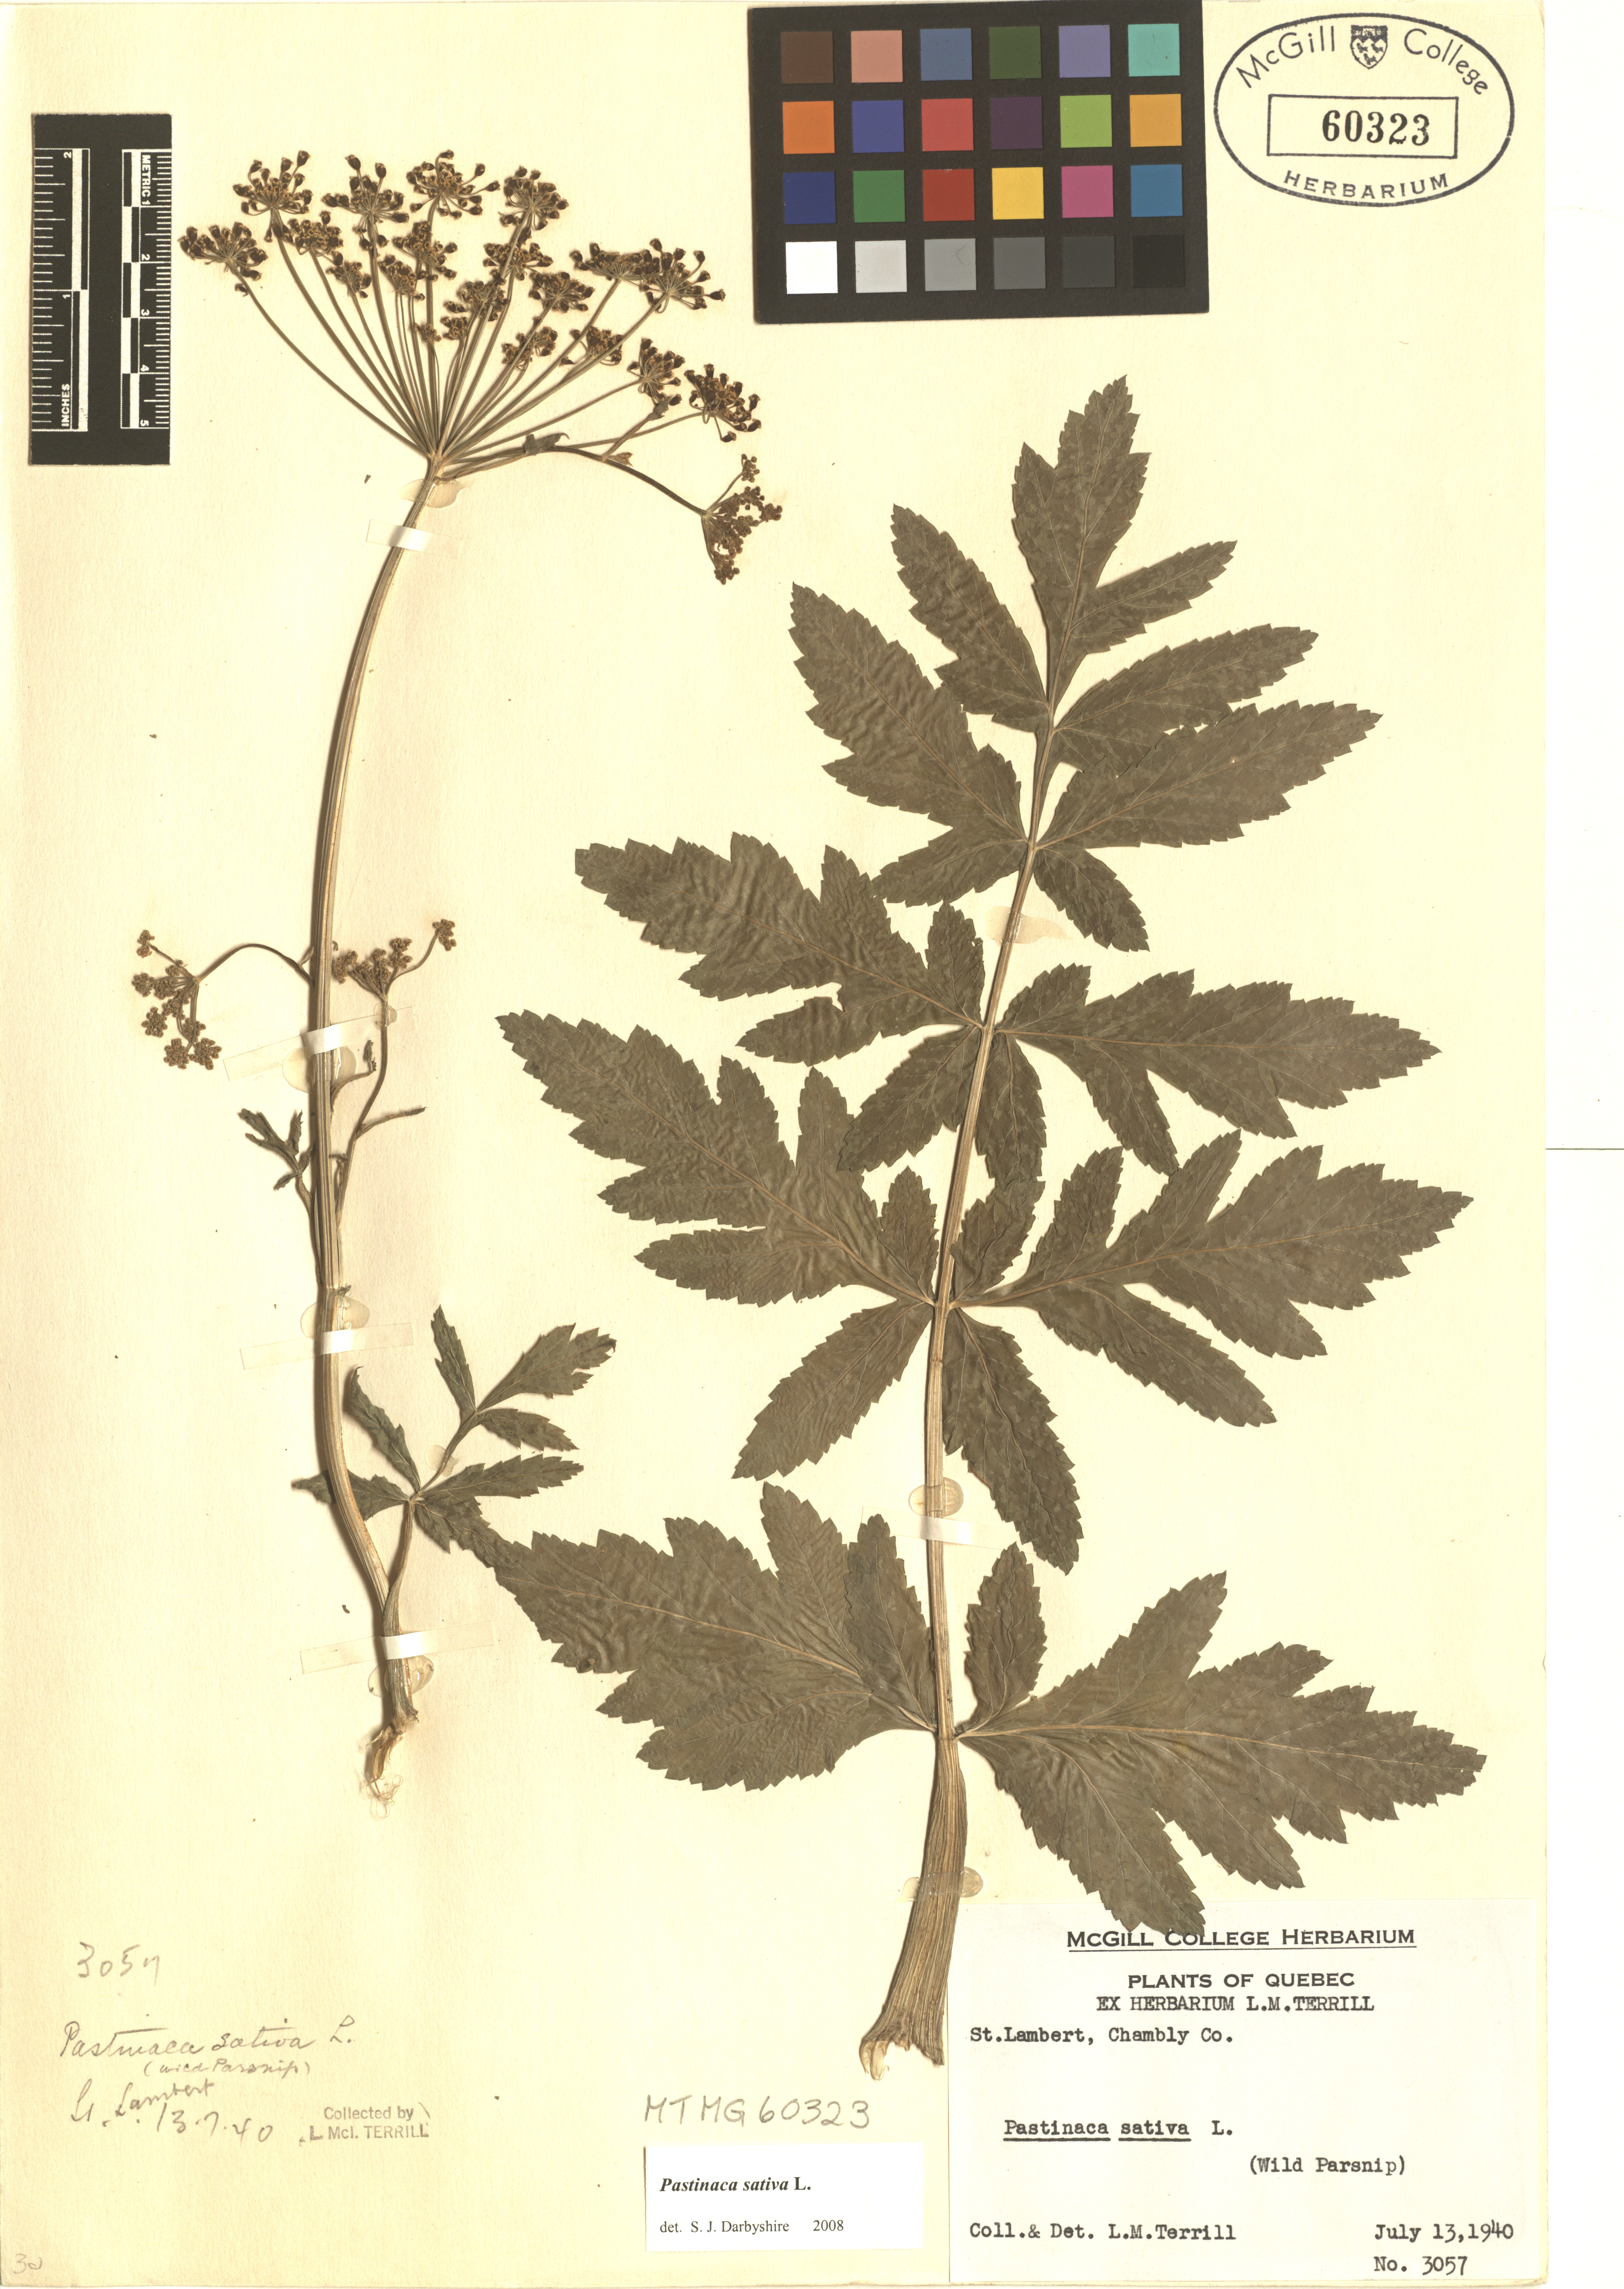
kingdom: Plantae
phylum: Tracheophyta
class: Magnoliopsida
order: Apiales
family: Apiaceae
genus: Pastinaca
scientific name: Pastinaca sativa
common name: Wild parsnip
